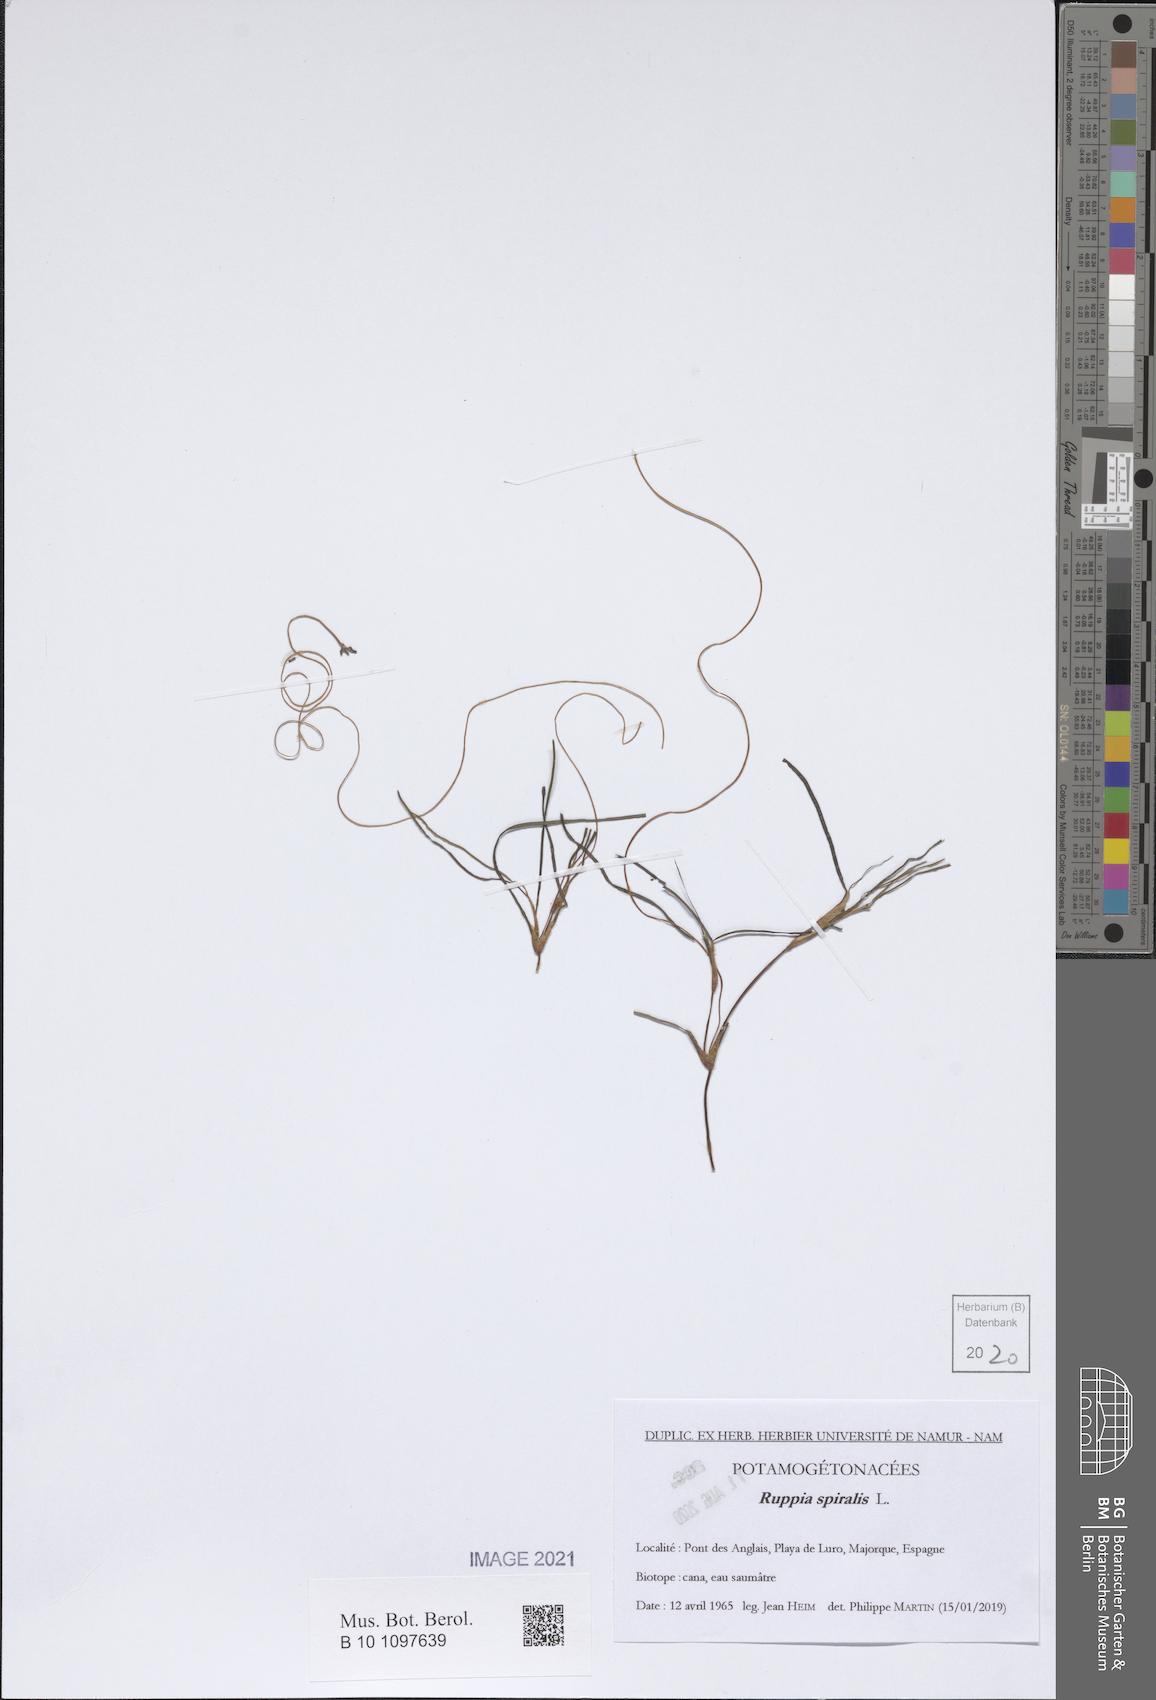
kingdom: Plantae
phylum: Tracheophyta
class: Liliopsida
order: Alismatales
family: Ruppiaceae
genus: Ruppia
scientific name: Ruppia cirrhosa
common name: Spiral tasselweed
